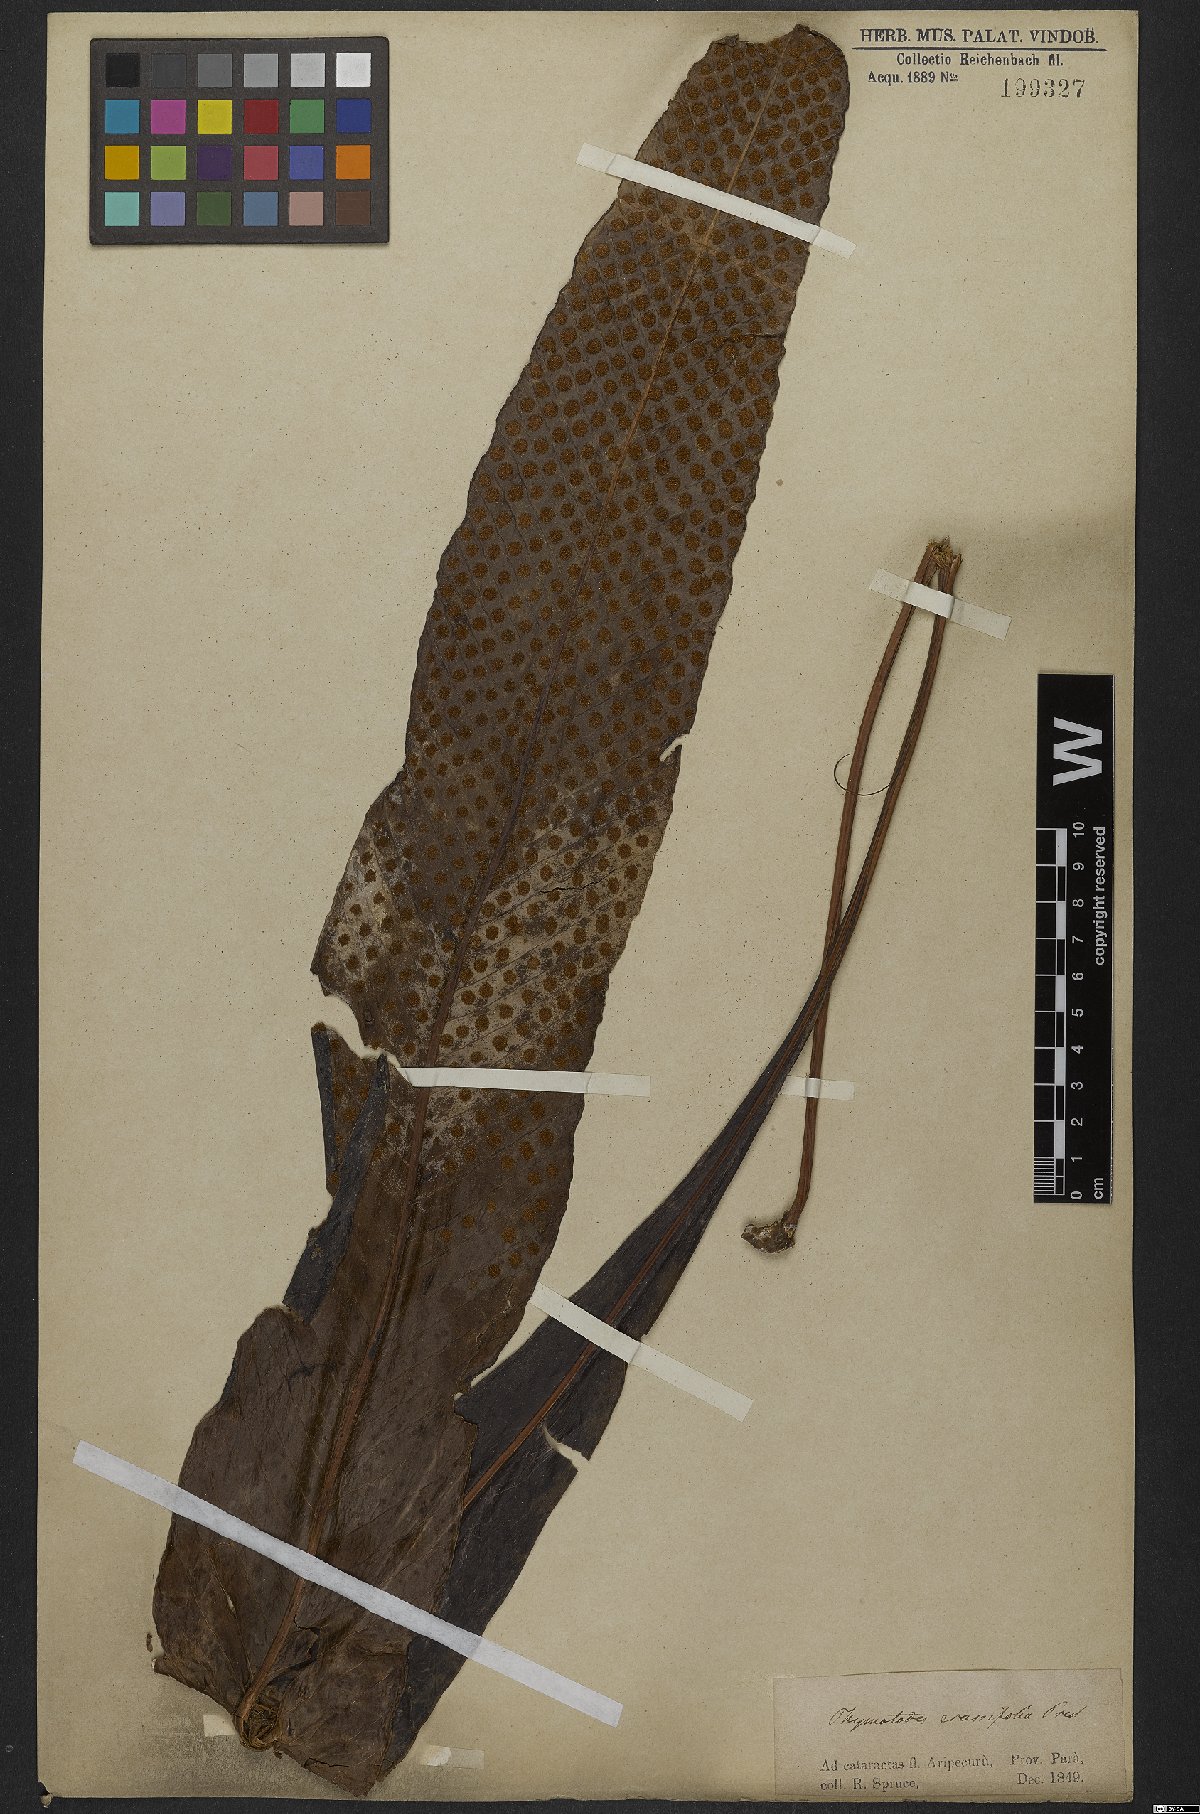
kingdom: Plantae
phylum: Tracheophyta
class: Polypodiopsida
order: Polypodiales
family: Polypodiaceae
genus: Niphidium
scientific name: Niphidium crassifolium
